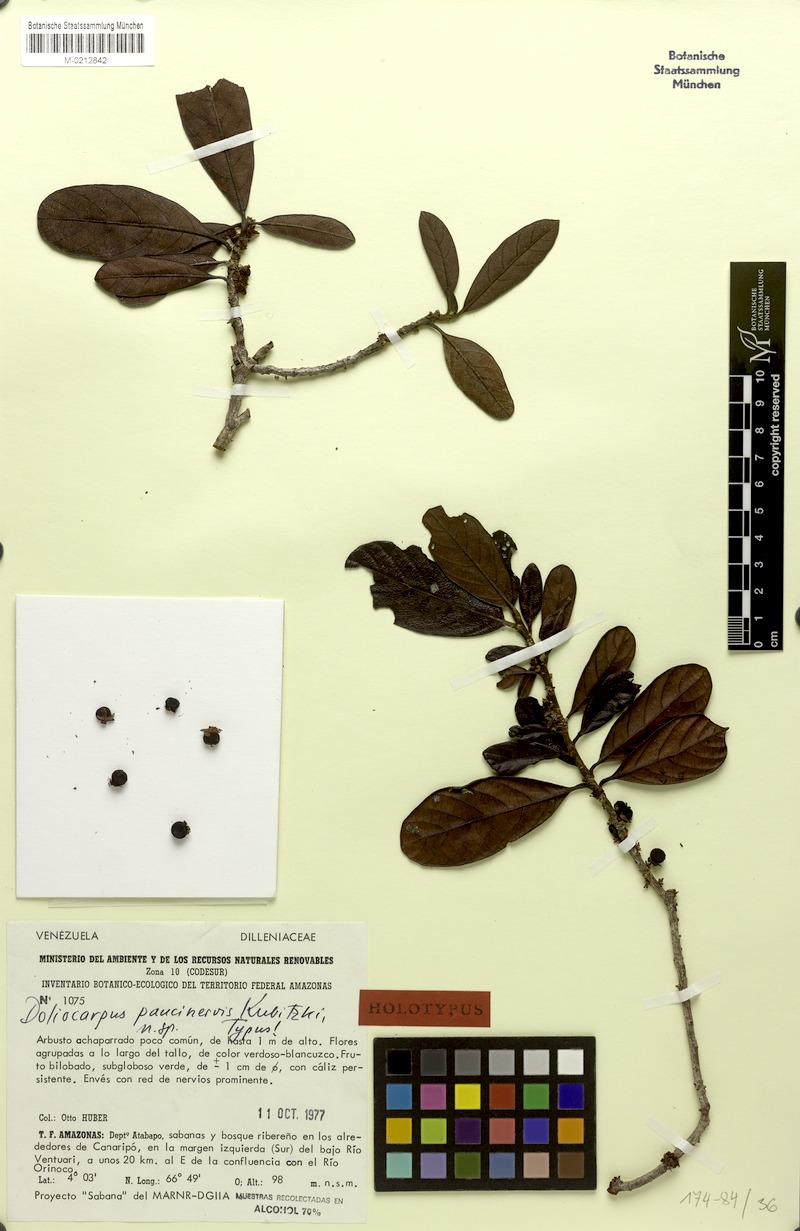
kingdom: Plantae
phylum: Tracheophyta
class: Magnoliopsida
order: Dilleniales
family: Dilleniaceae
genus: Doliocarpus
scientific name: Doliocarpus paucinervis
